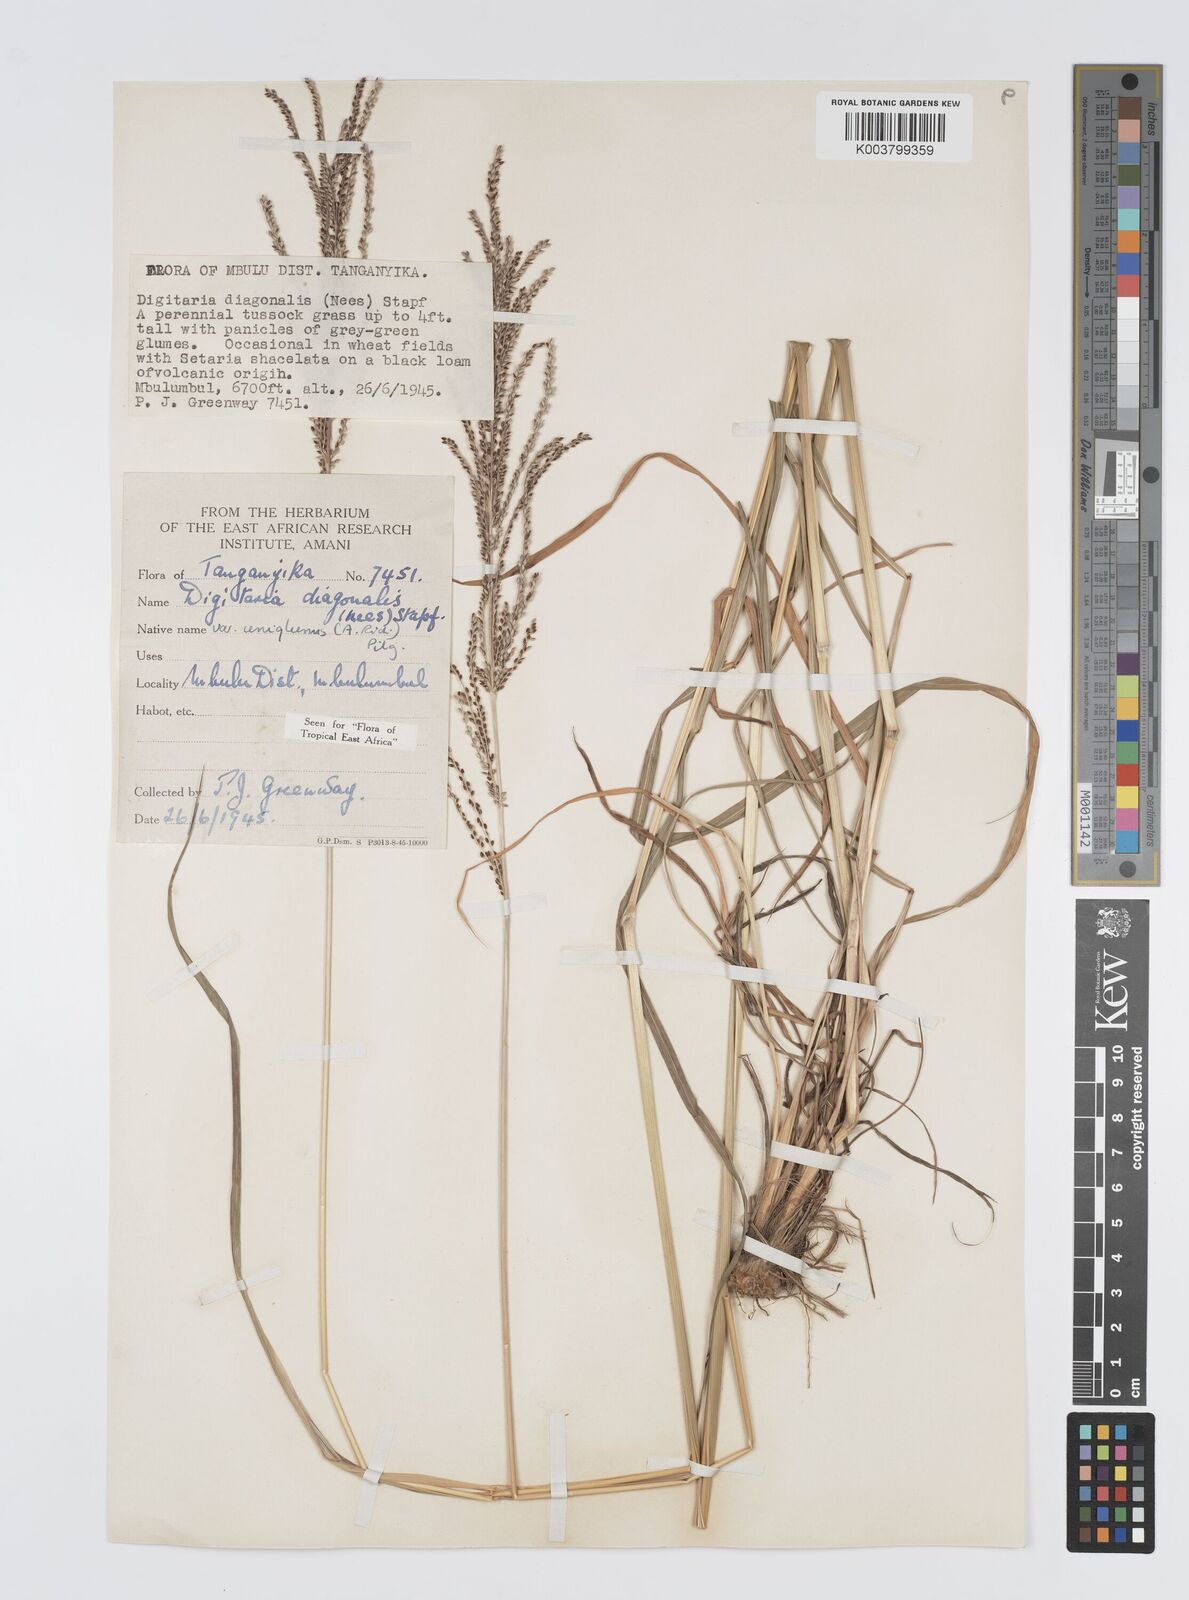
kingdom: Plantae
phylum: Tracheophyta
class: Liliopsida
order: Poales
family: Poaceae
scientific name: Poaceae
